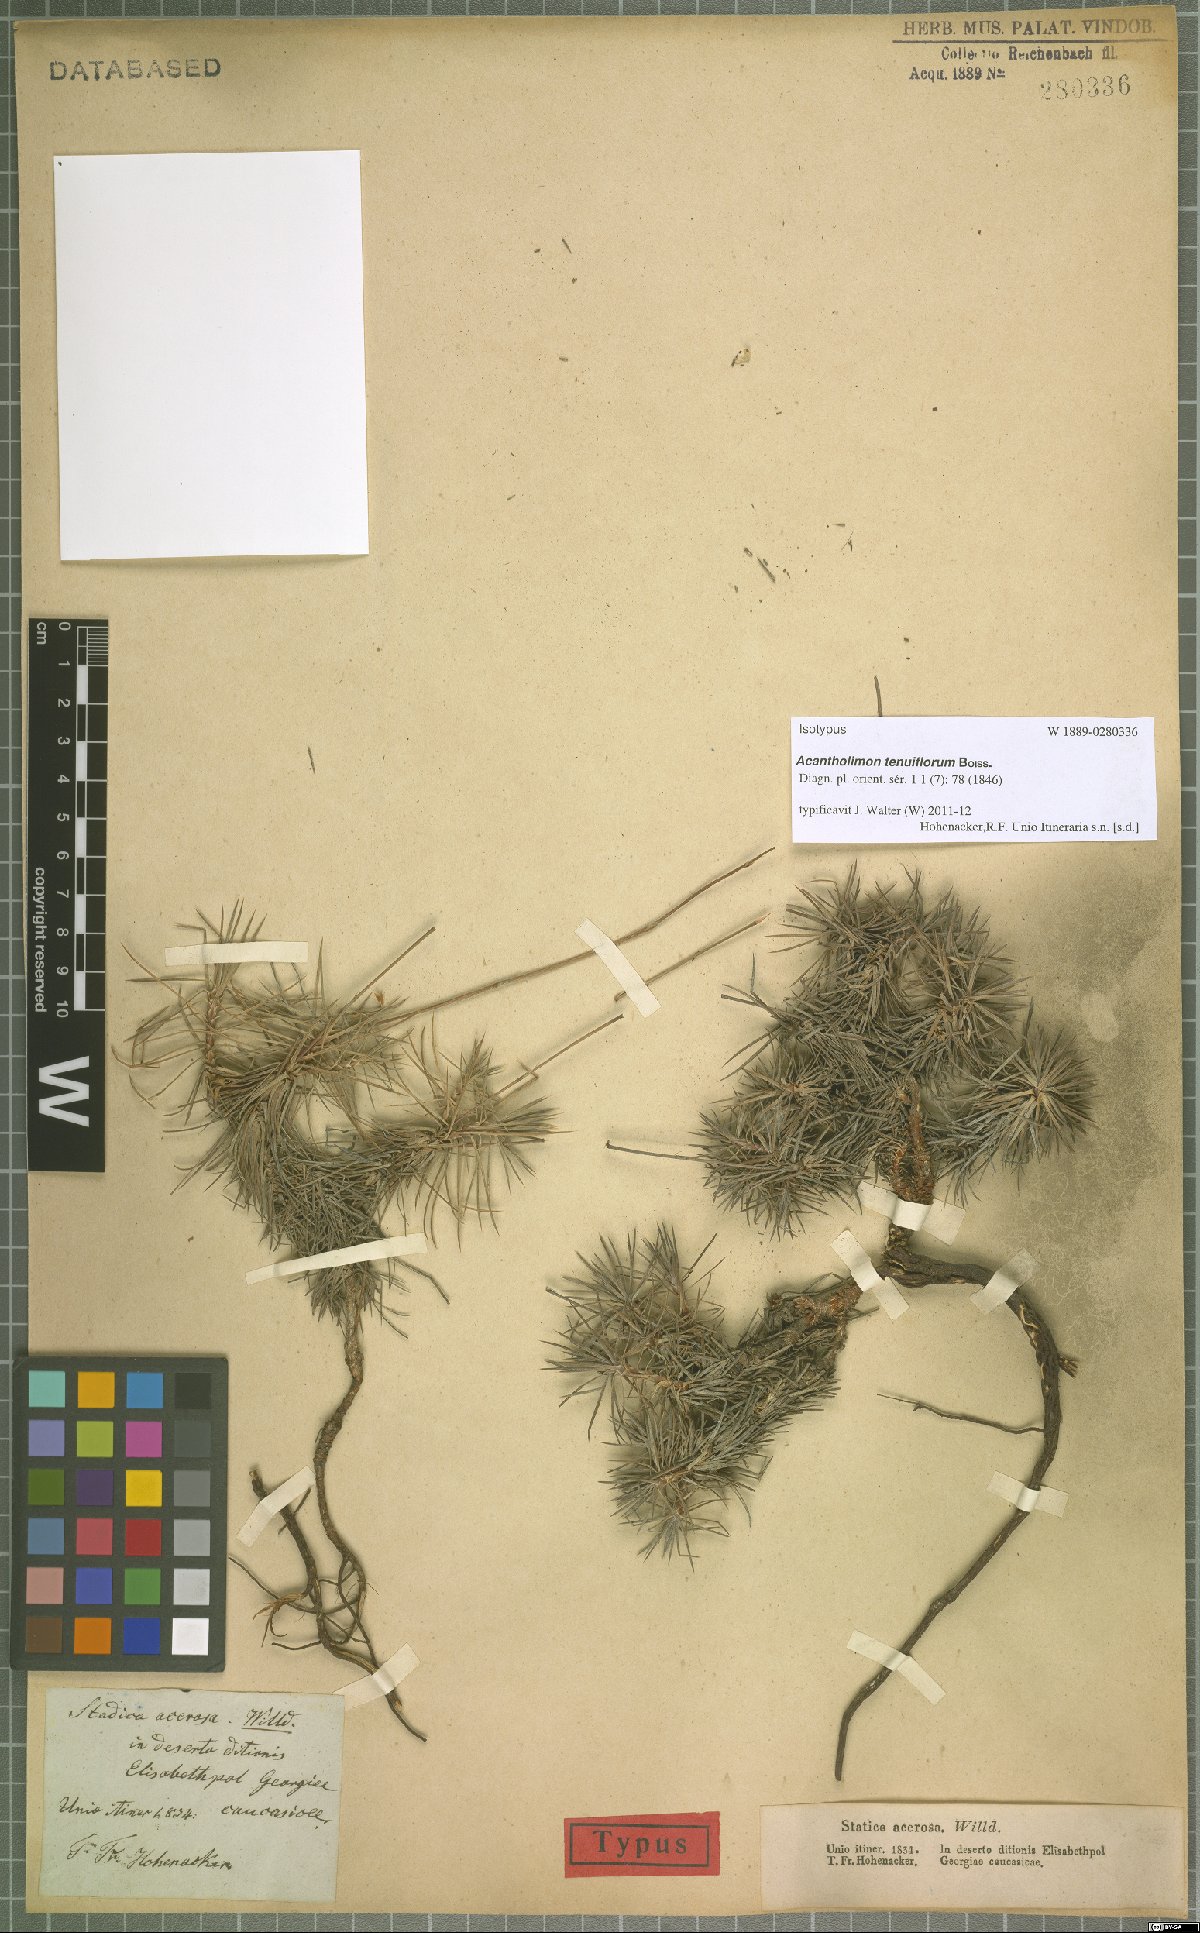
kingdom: Plantae
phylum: Tracheophyta
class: Magnoliopsida
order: Caryophyllales
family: Plumbaginaceae
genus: Acantholimon
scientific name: Acantholimon tenuiflorum
